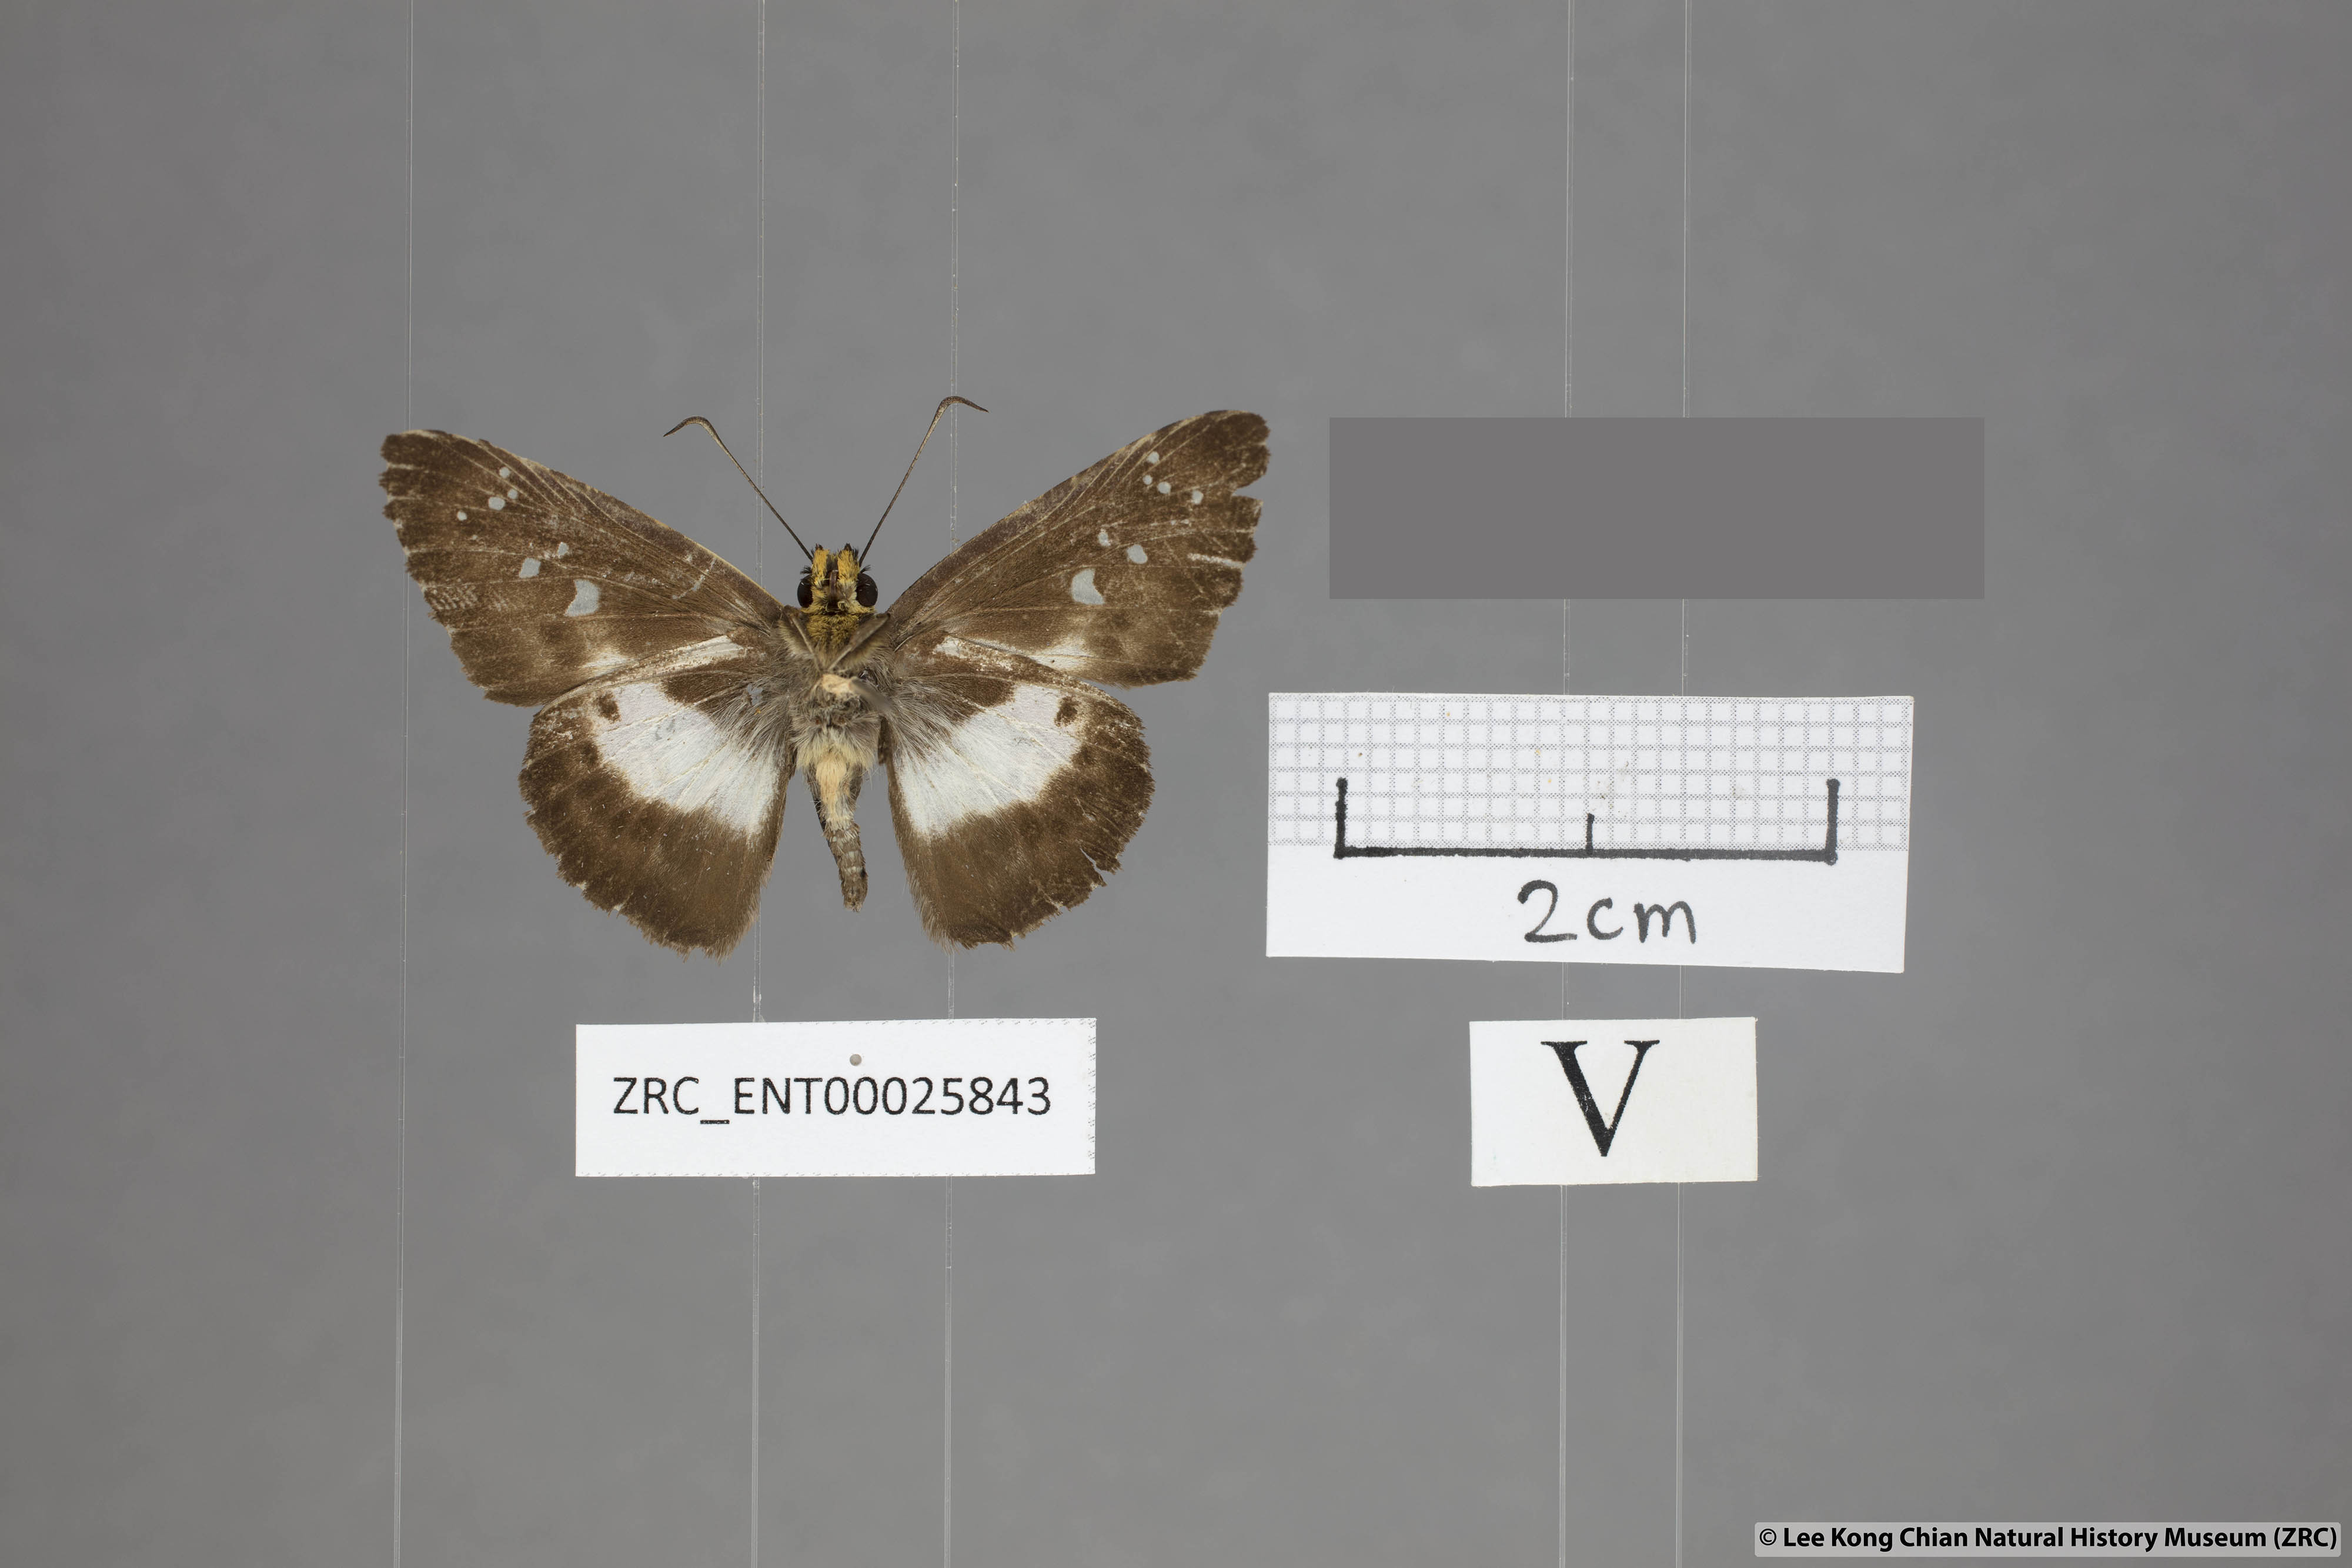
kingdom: Animalia
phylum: Arthropoda
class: Insecta
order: Lepidoptera
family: Hesperiidae
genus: Daimio
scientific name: Daimio
